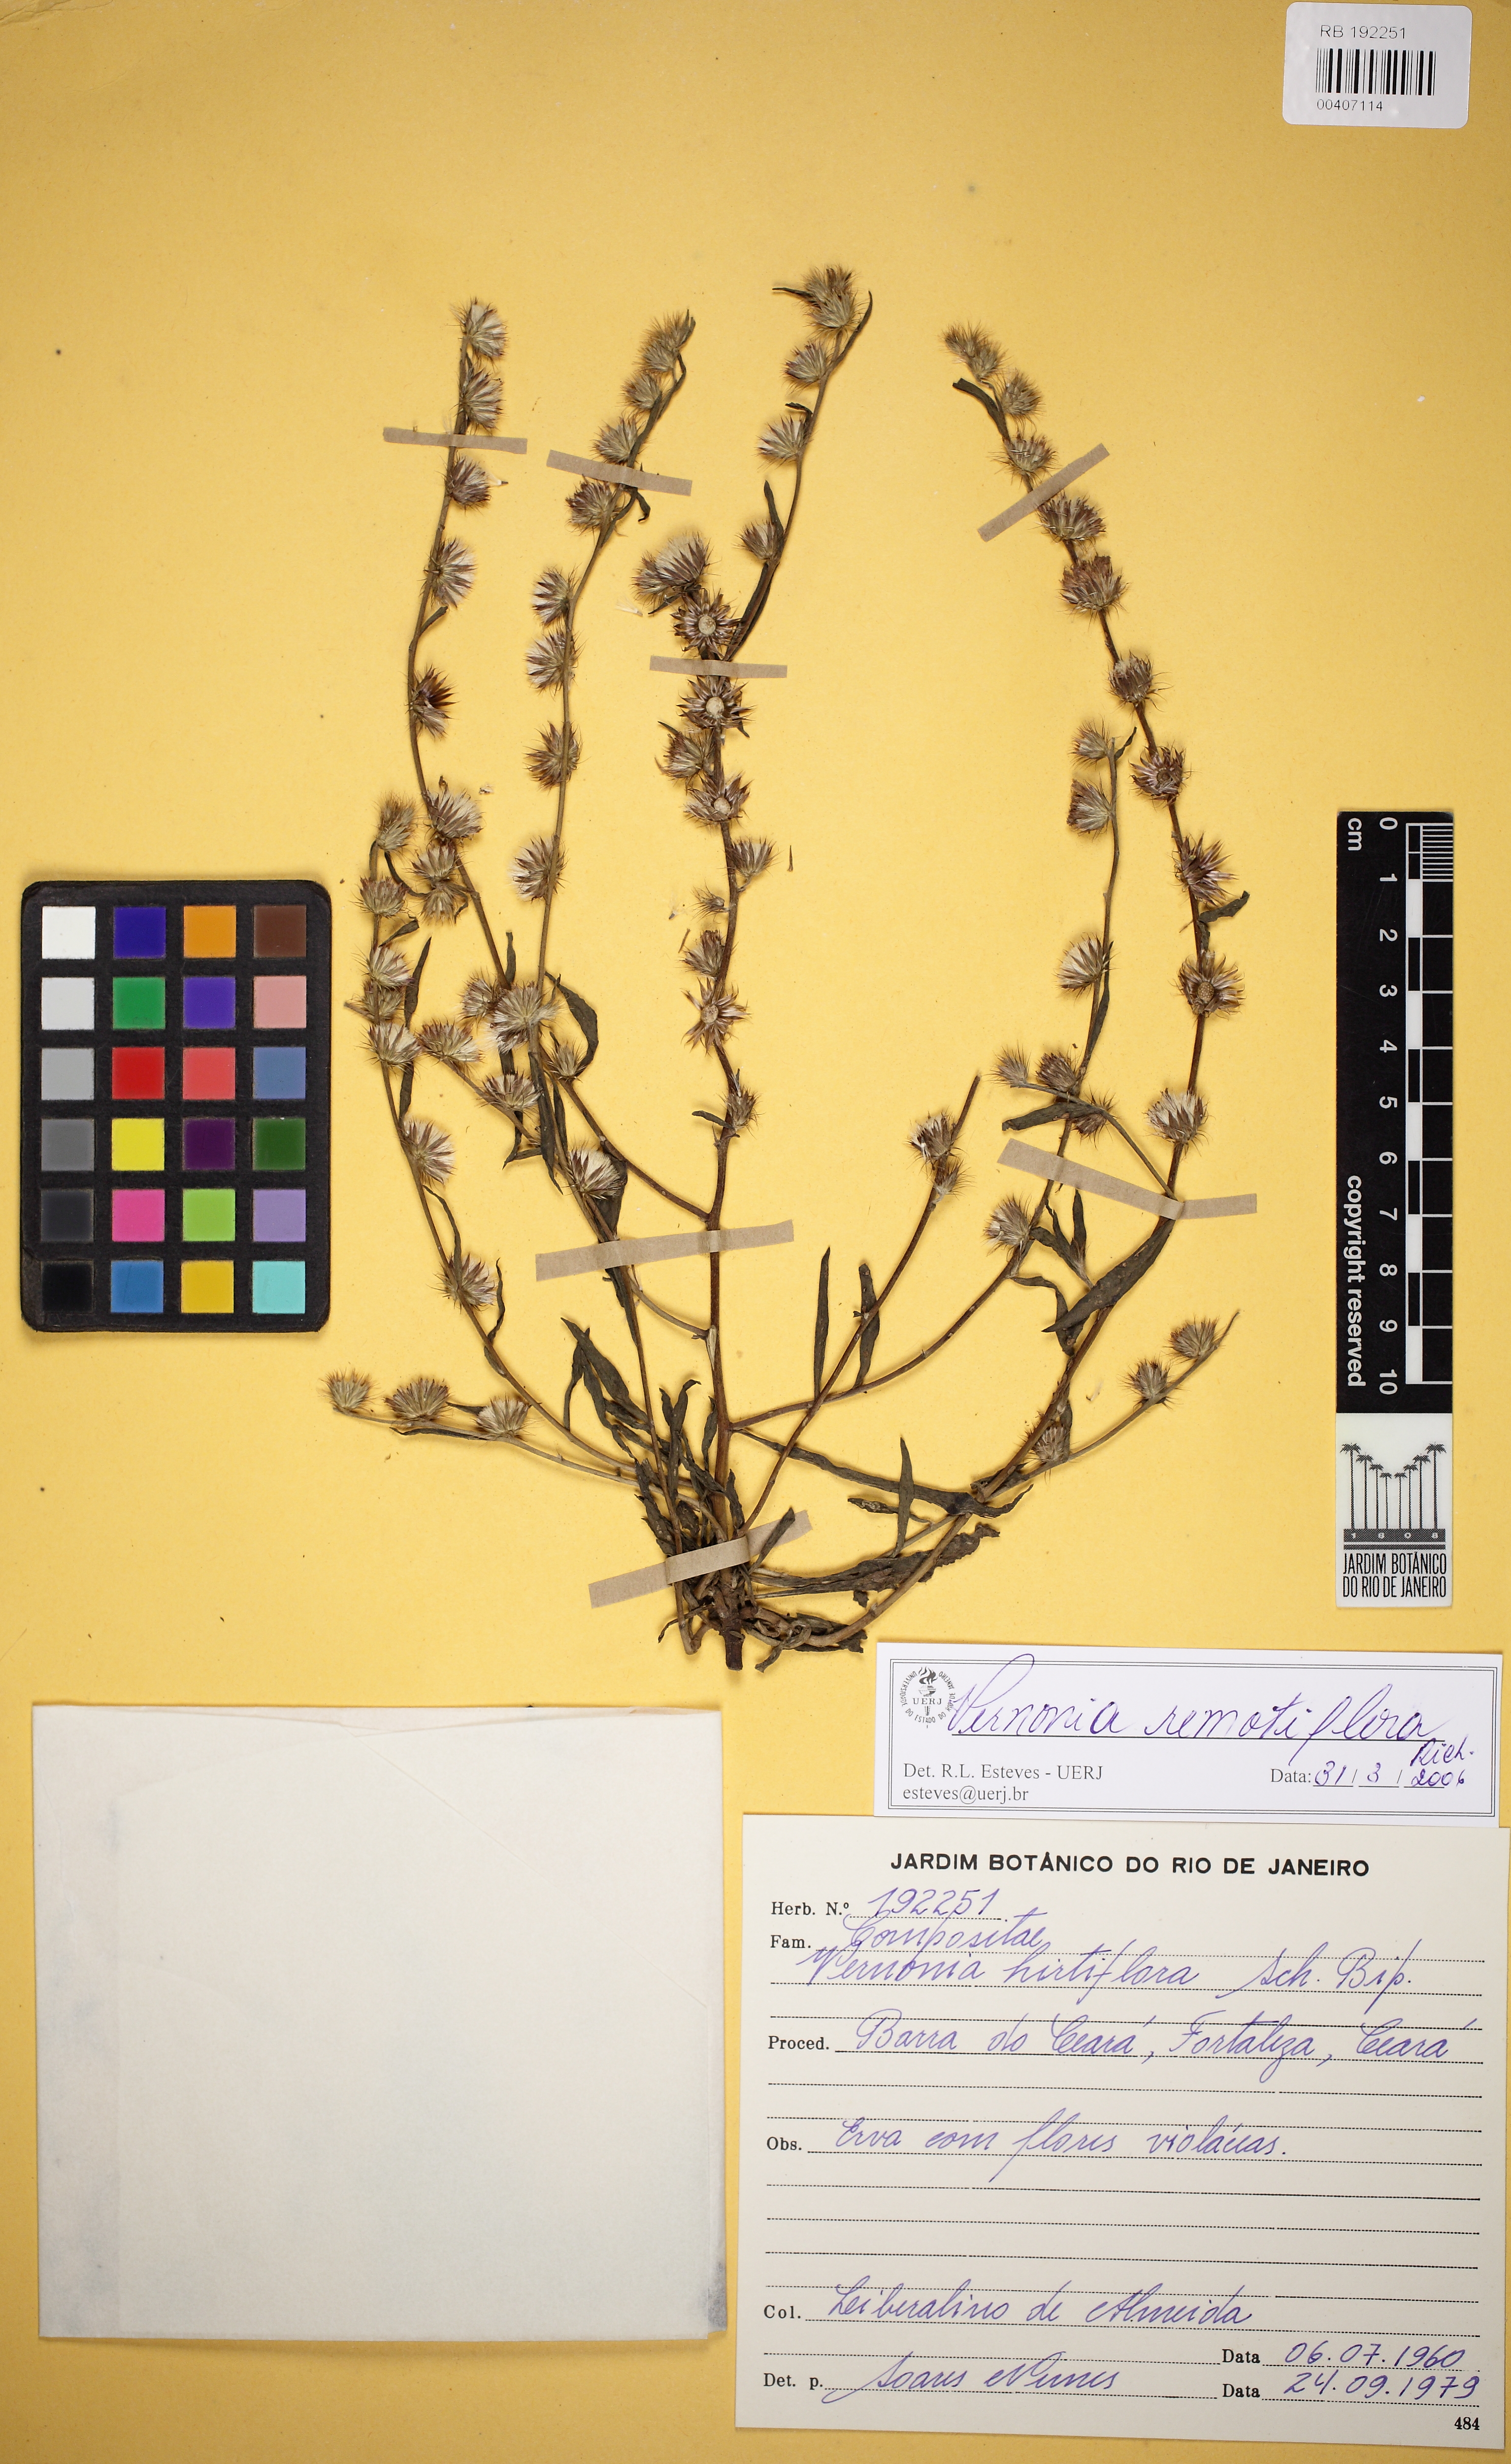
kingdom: Plantae
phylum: Tracheophyta
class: Magnoliopsida
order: Asterales
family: Asteraceae
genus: Lepidaploa
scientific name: Lepidaploa remotiflora
